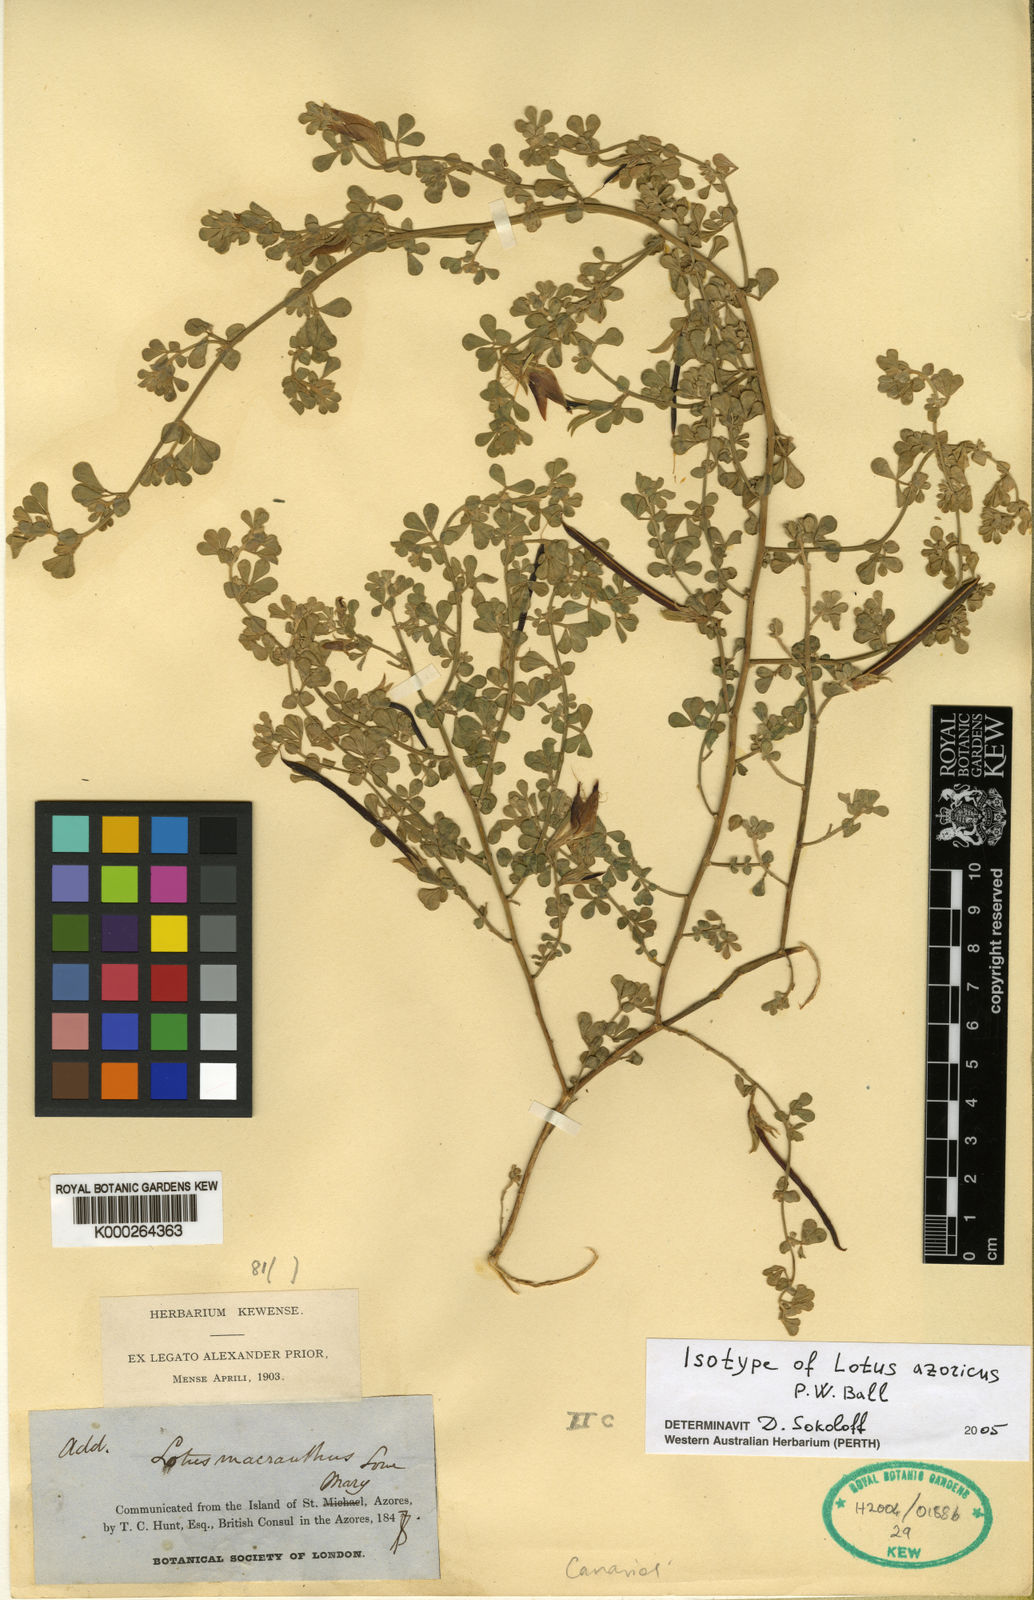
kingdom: Plantae
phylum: Tracheophyta
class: Magnoliopsida
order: Fabales
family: Fabaceae
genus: Lotus
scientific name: Lotus
